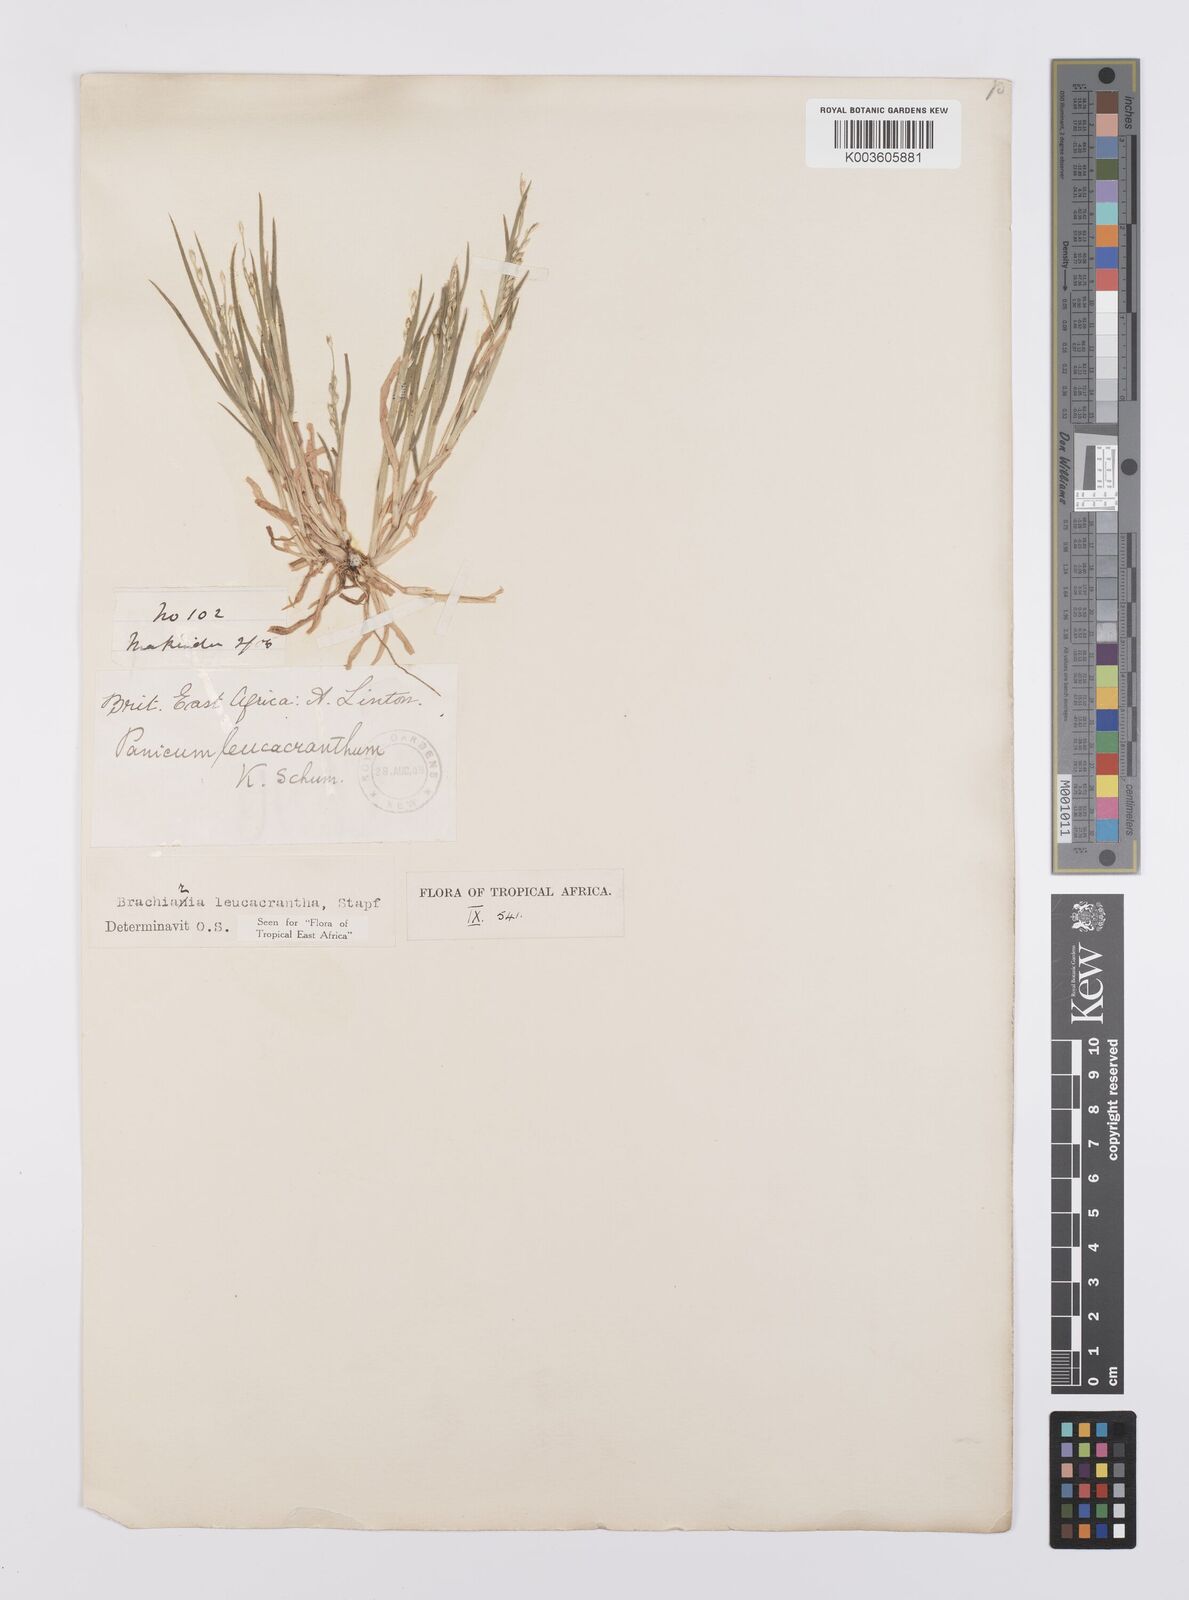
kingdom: Plantae
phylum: Tracheophyta
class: Liliopsida
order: Poales
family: Poaceae
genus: Urochloa
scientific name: Urochloa xantholeuca
